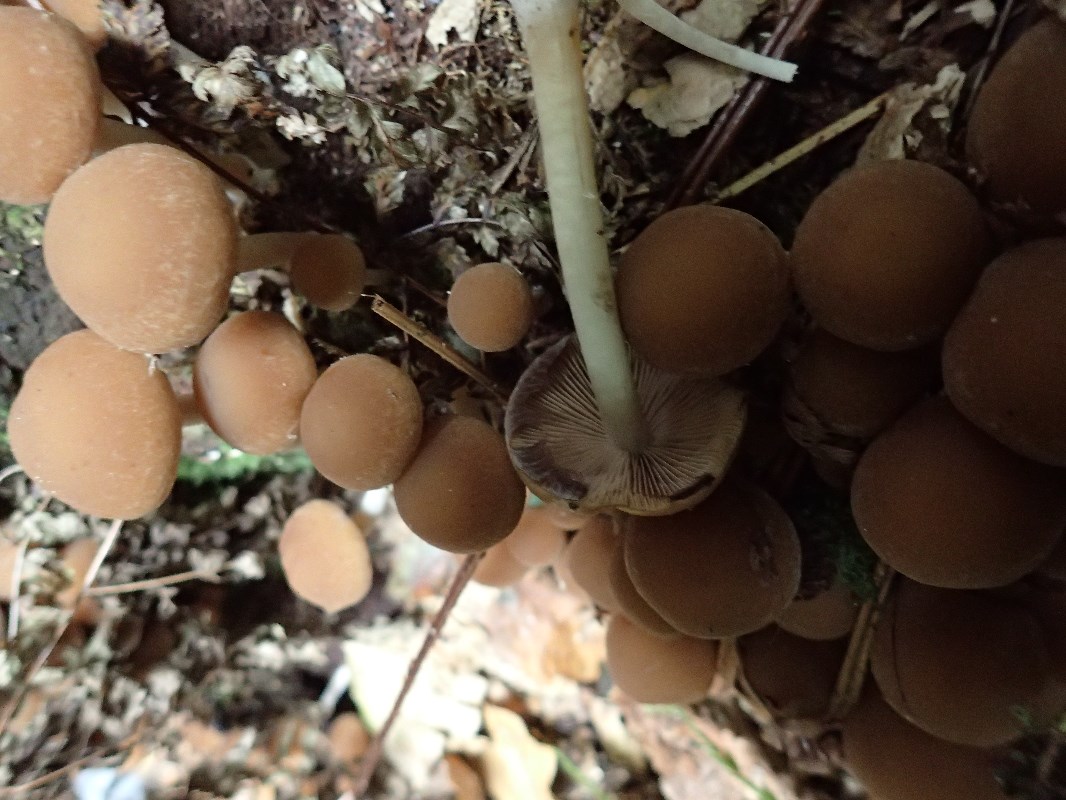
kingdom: Fungi
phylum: Basidiomycota
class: Agaricomycetes
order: Agaricales
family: Psathyrellaceae
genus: Psathyrella
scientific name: Psathyrella piluliformis
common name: lysstokket mørkhat
